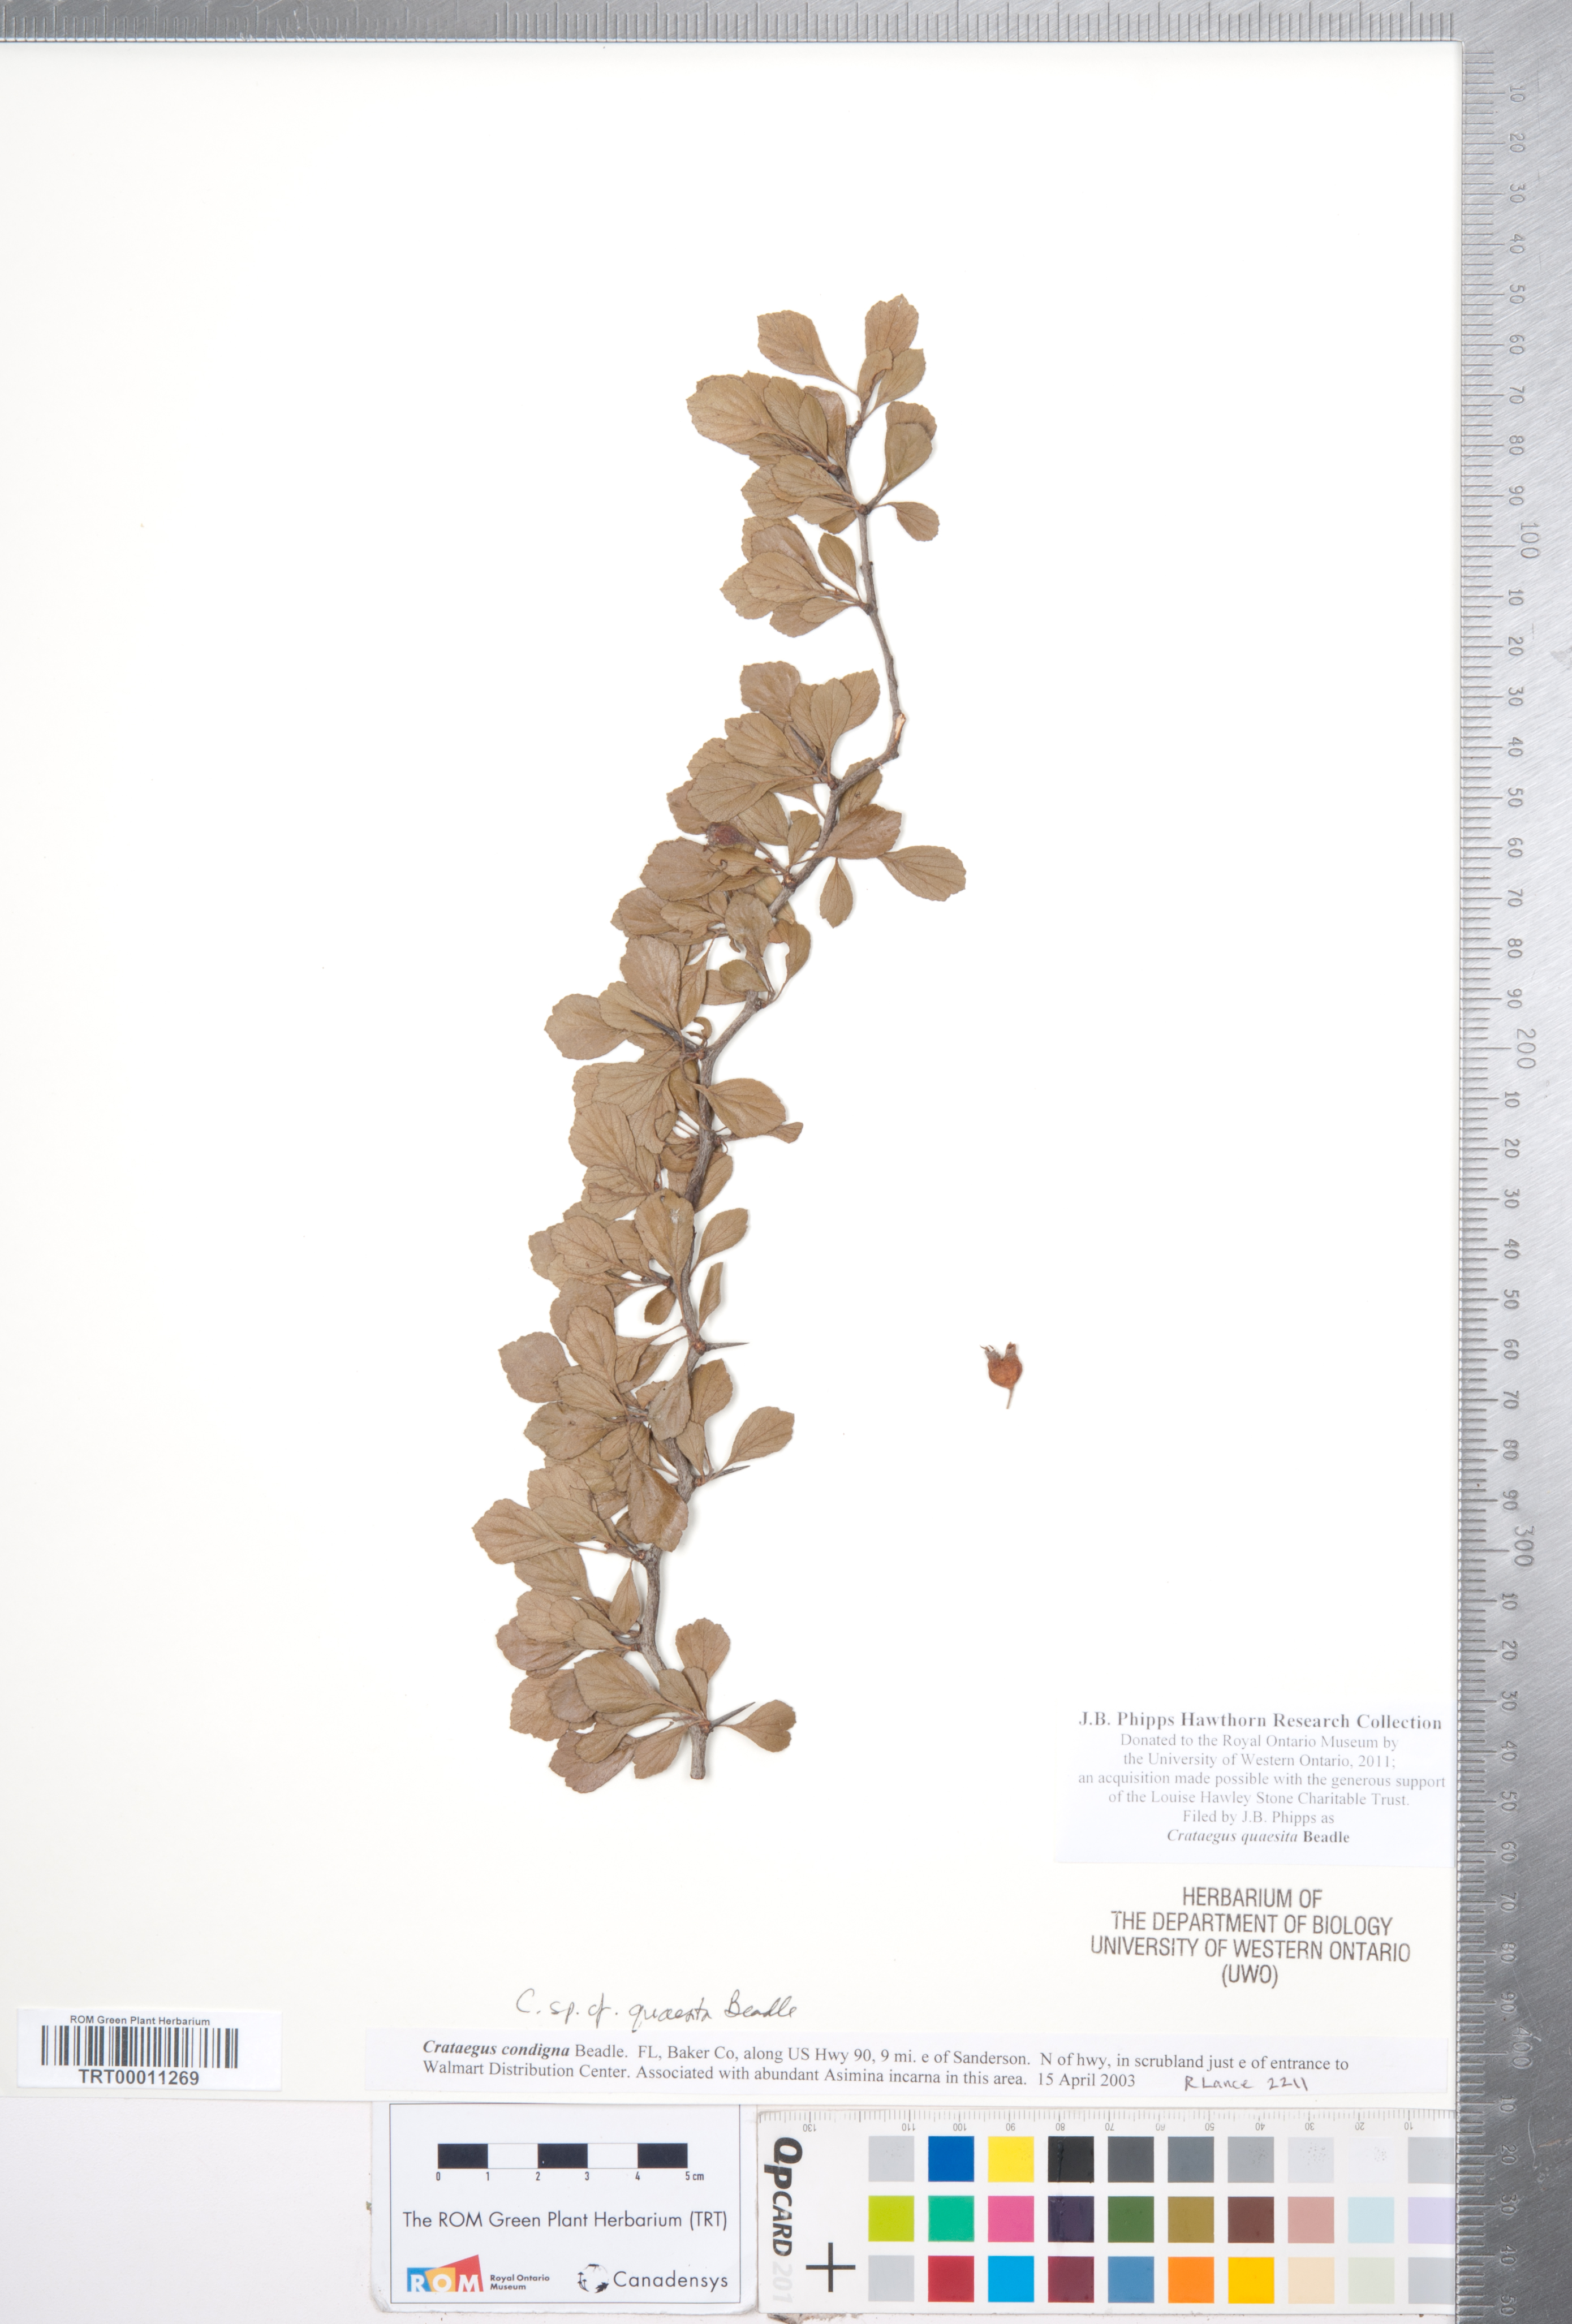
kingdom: Plantae
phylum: Tracheophyta
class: Magnoliopsida
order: Rosales
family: Rosaceae
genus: Crataegus
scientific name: Crataegus senta
